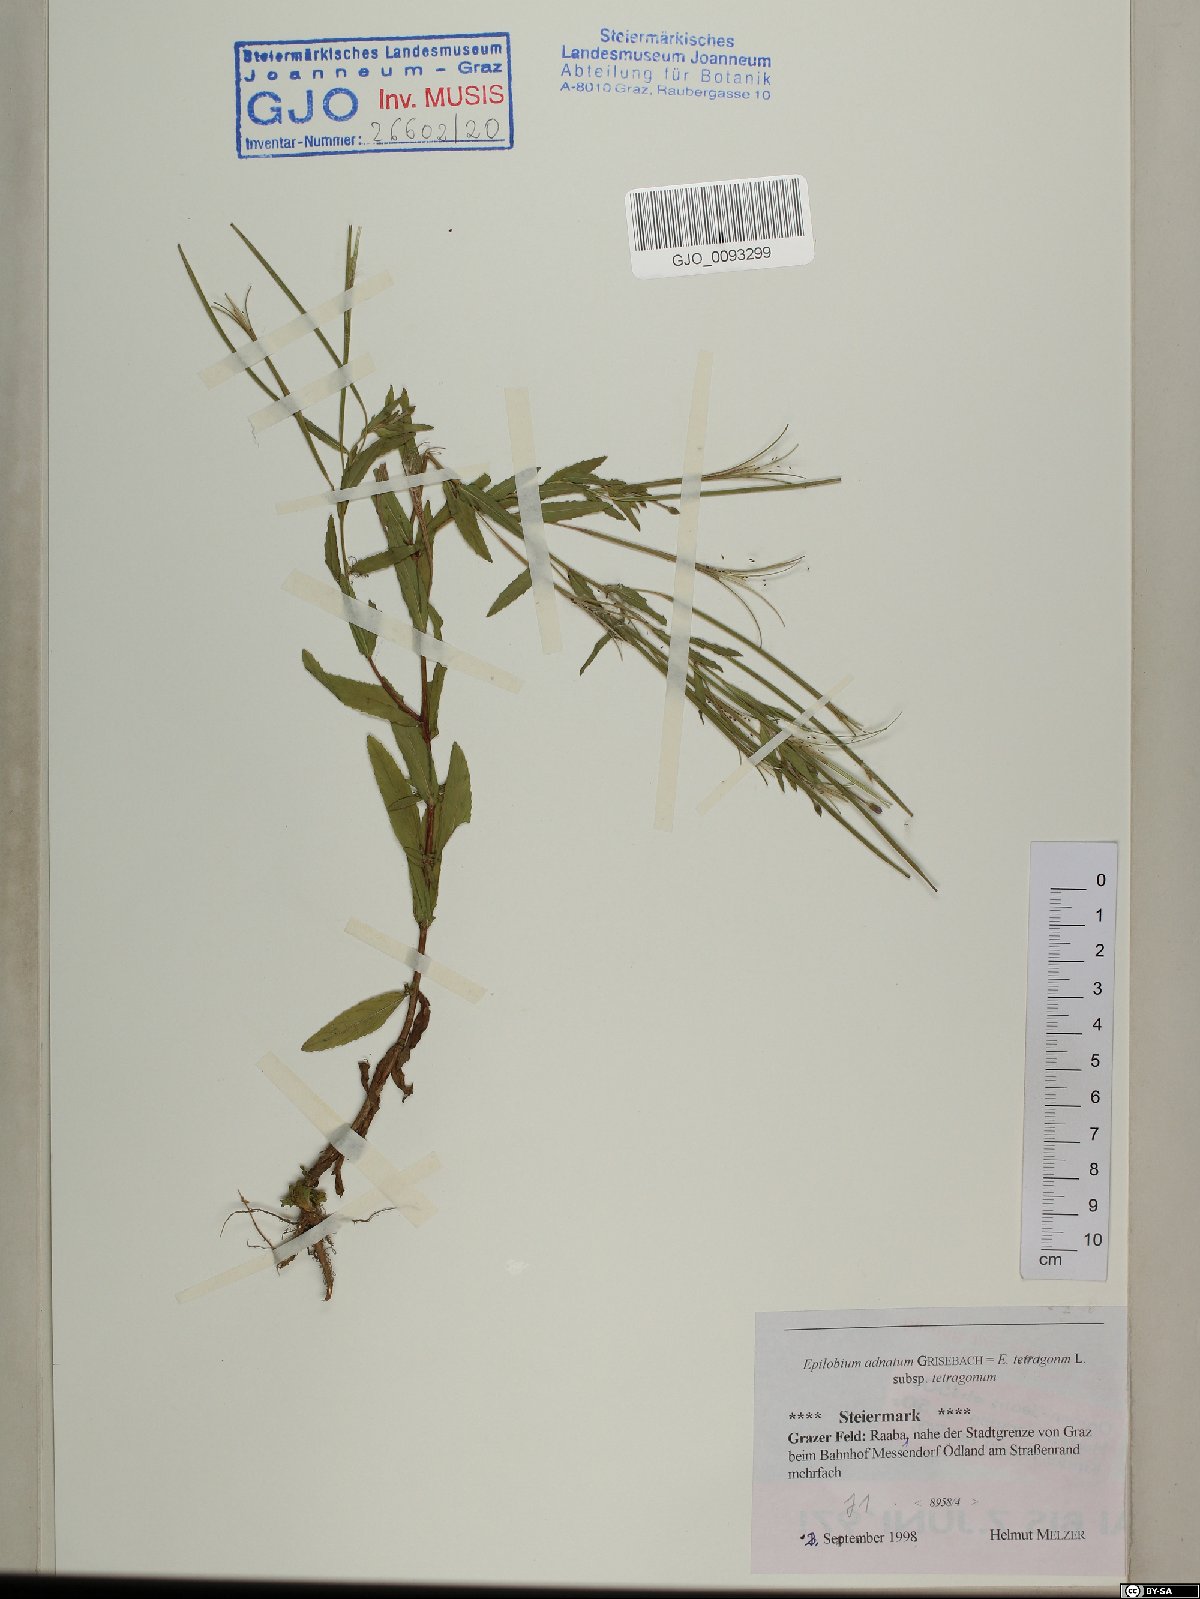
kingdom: Plantae
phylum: Tracheophyta
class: Magnoliopsida
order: Myrtales
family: Onagraceae
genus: Epilobium
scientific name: Epilobium tetragonum
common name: Square-stemmed willowherb
